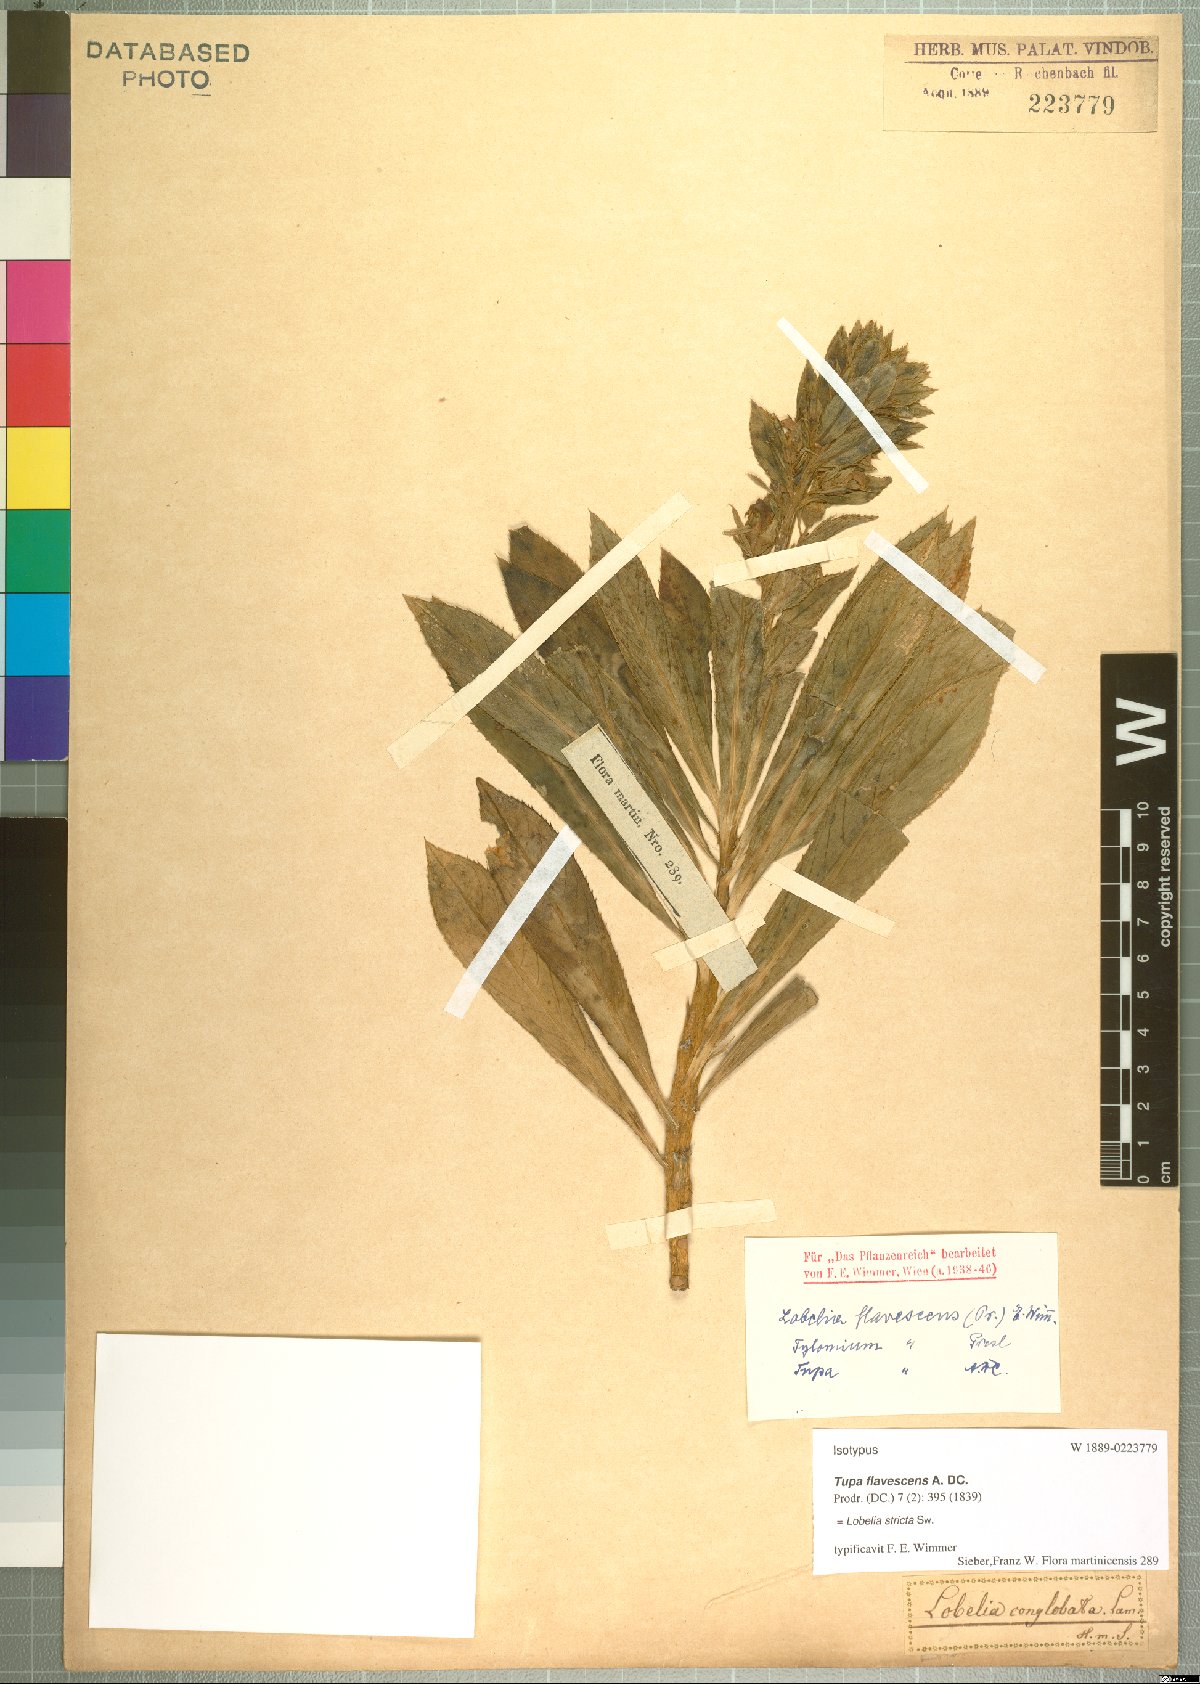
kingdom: Plantae
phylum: Tracheophyta
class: Magnoliopsida
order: Asterales
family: Campanulaceae
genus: Lobelia
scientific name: Lobelia stricta
